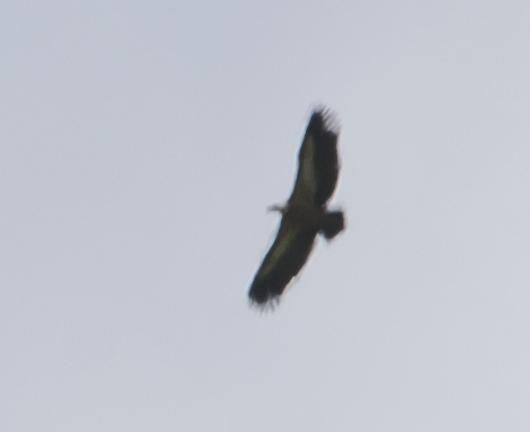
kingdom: Animalia
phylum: Chordata
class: Aves
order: Accipitriformes
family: Accipitridae
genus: Gyps
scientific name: Gyps fulvus
